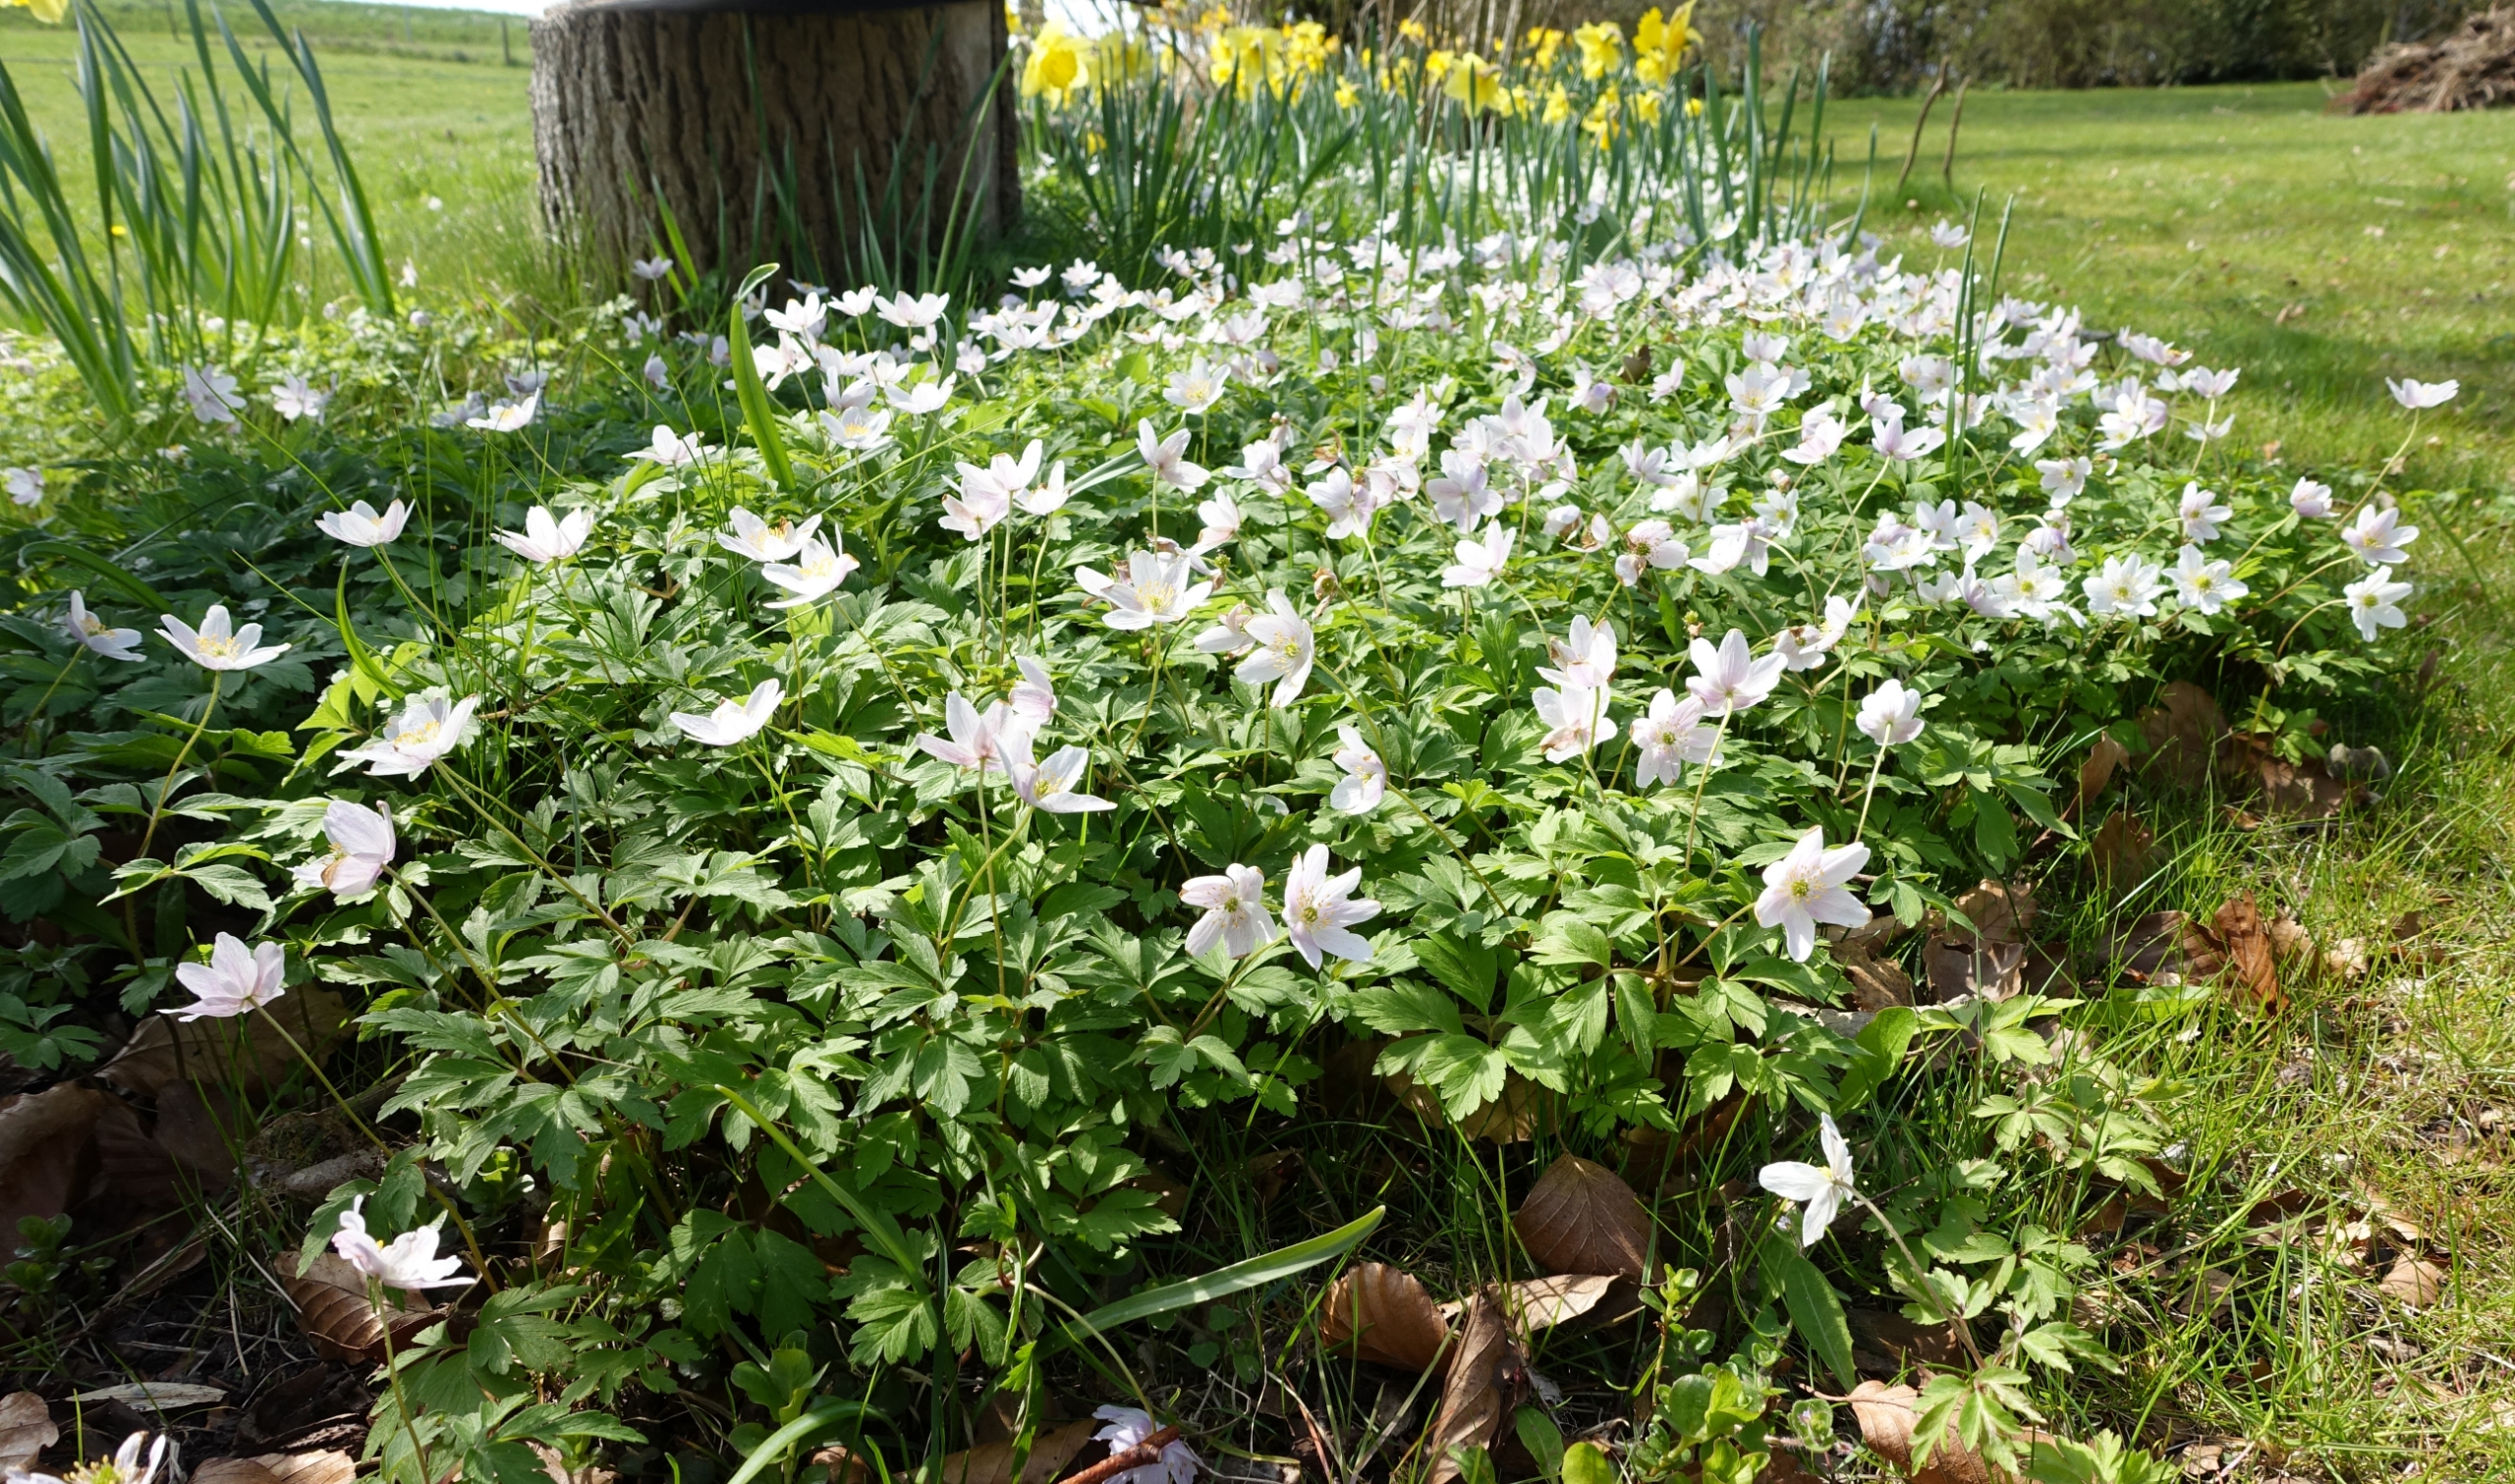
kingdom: Plantae
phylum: Tracheophyta
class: Magnoliopsida
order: Ranunculales
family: Ranunculaceae
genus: Anemone
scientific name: Anemone nemorosa
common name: Hvid anemone
